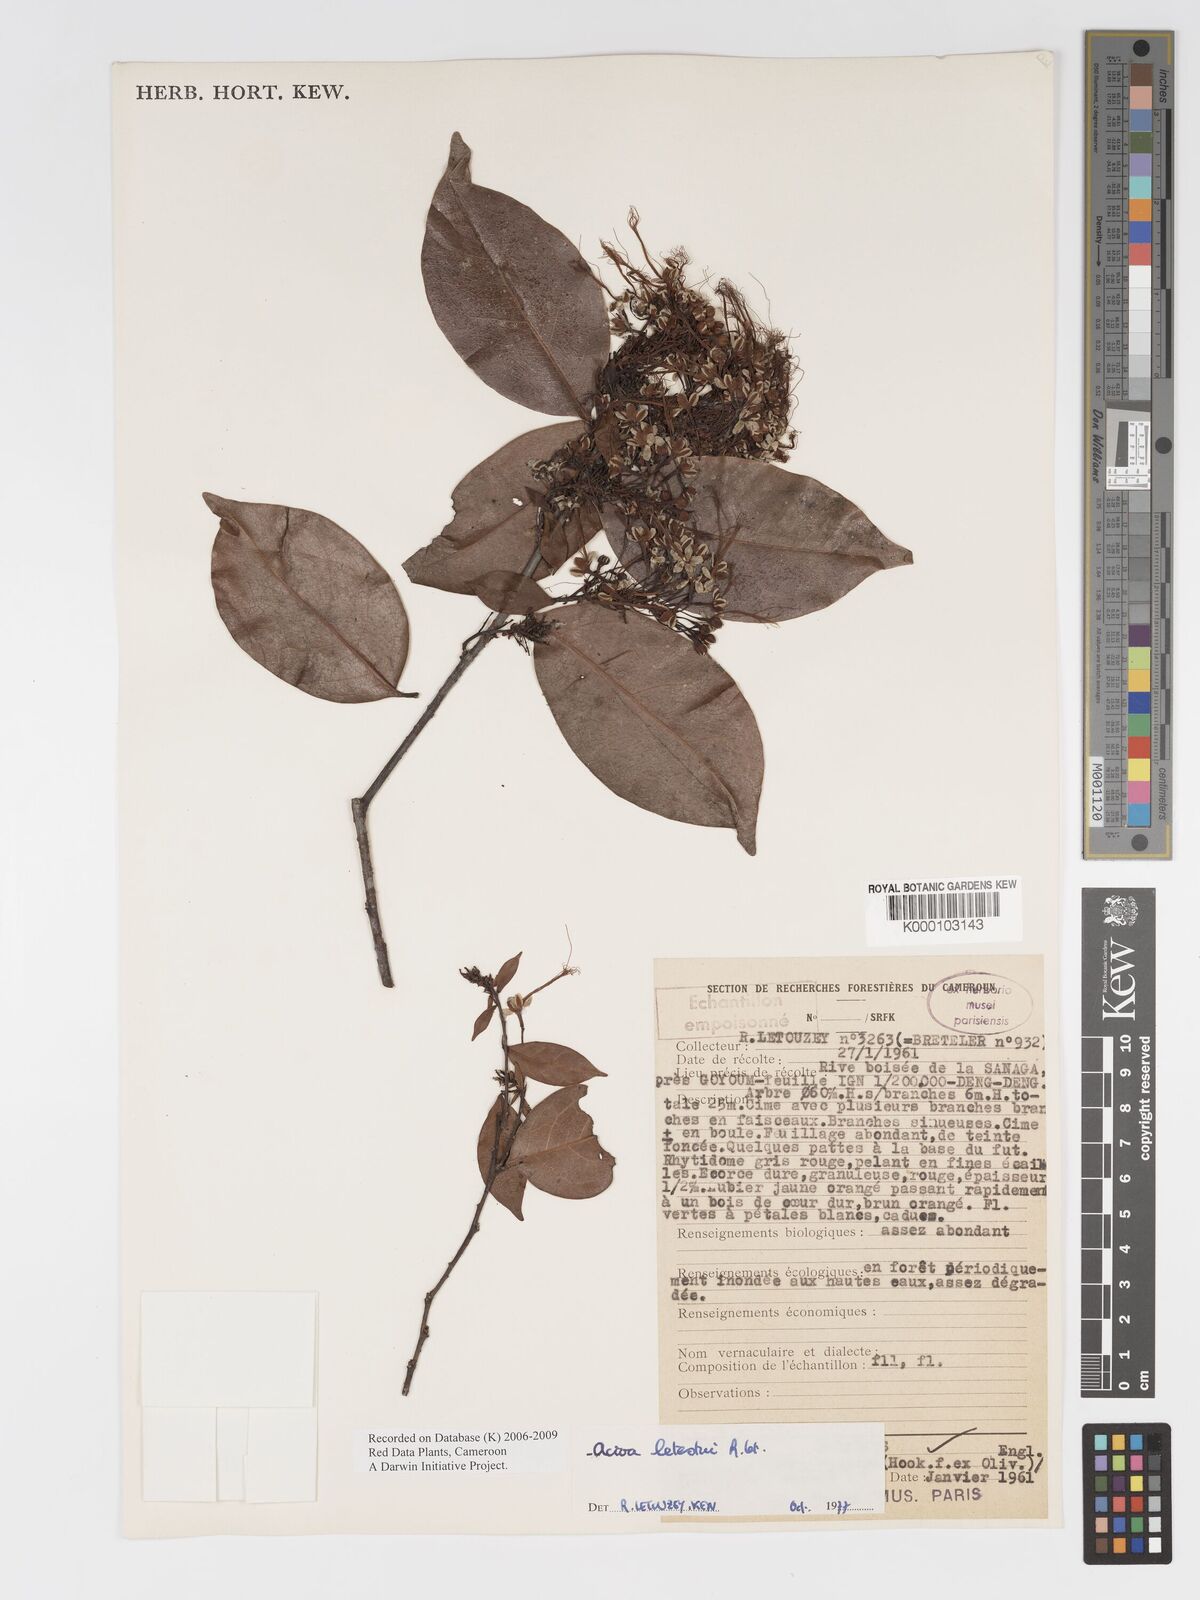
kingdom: Plantae
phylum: Tracheophyta
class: Magnoliopsida
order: Malpighiales
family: Chrysobalanaceae
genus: Dactyladenia
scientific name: Dactyladenia letestui
